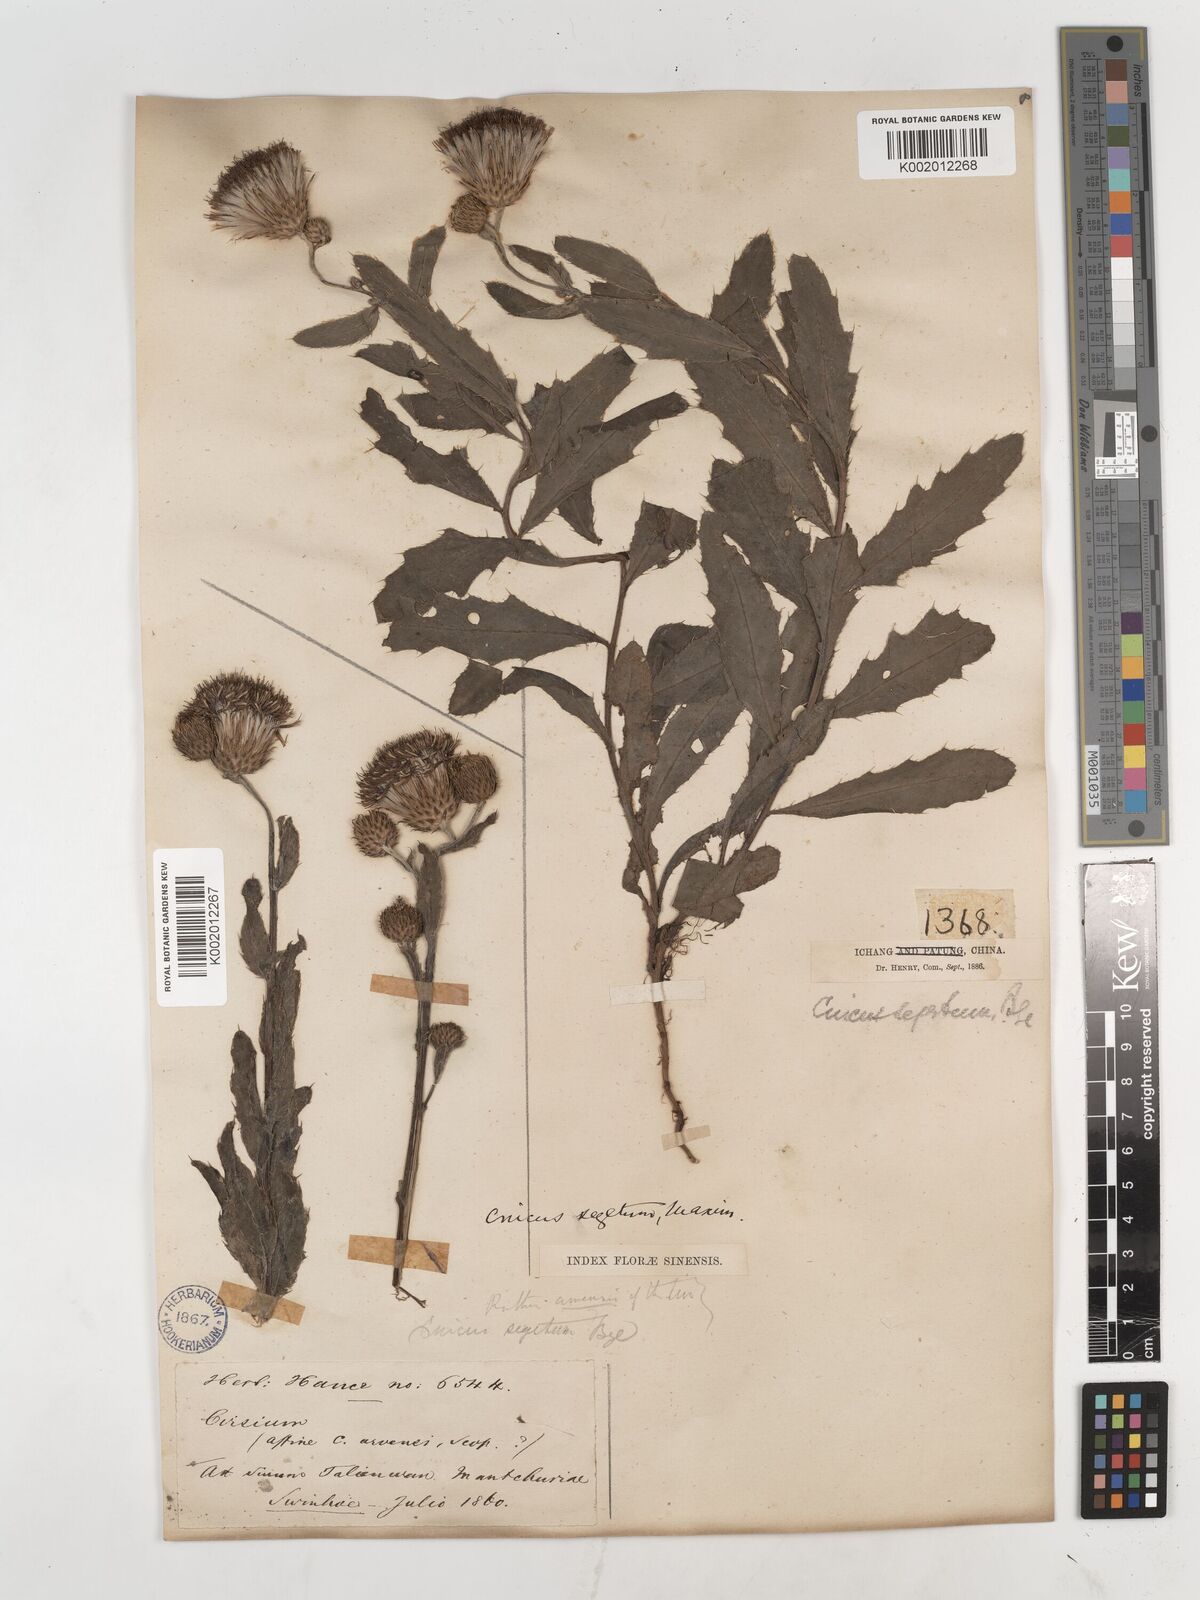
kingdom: Plantae
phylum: Tracheophyta
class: Magnoliopsida
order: Asterales
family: Asteraceae
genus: Cirsium
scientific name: Cirsium
